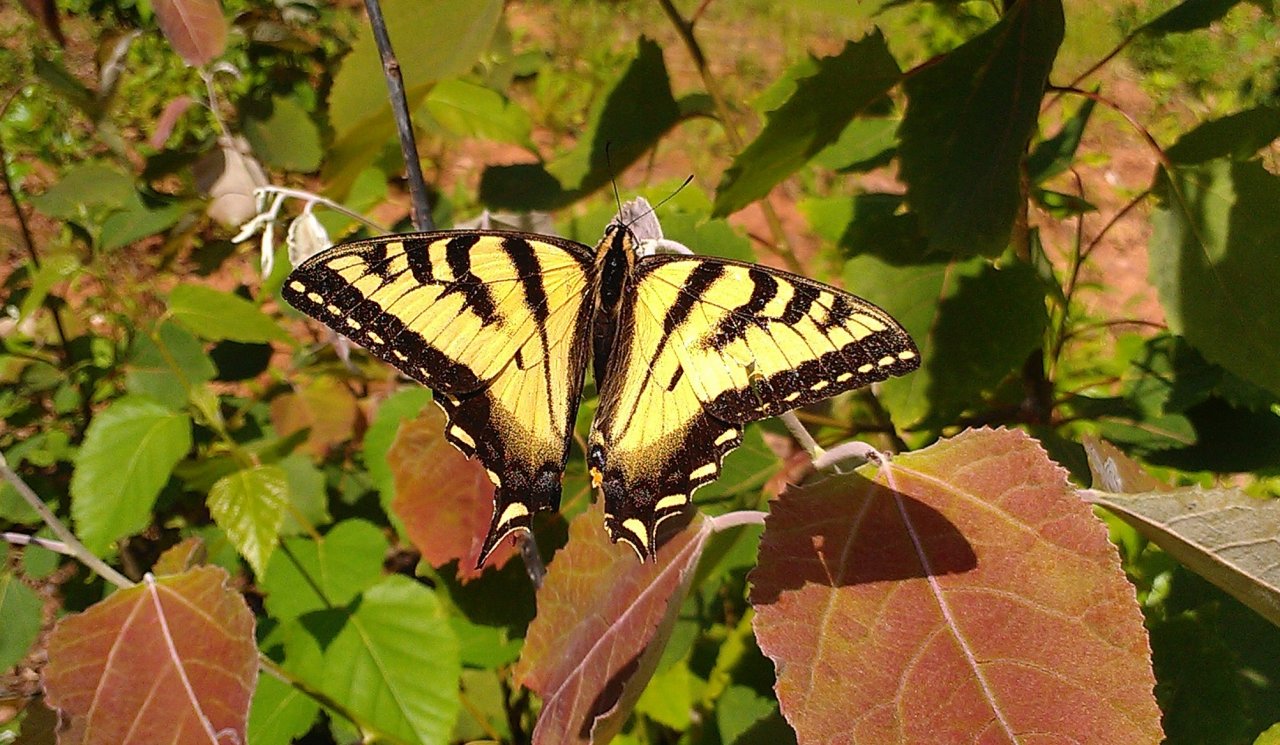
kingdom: Animalia
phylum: Arthropoda
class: Insecta
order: Lepidoptera
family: Papilionidae
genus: Pterourus
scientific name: Pterourus canadensis
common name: Canadian Tiger Swallowtail
